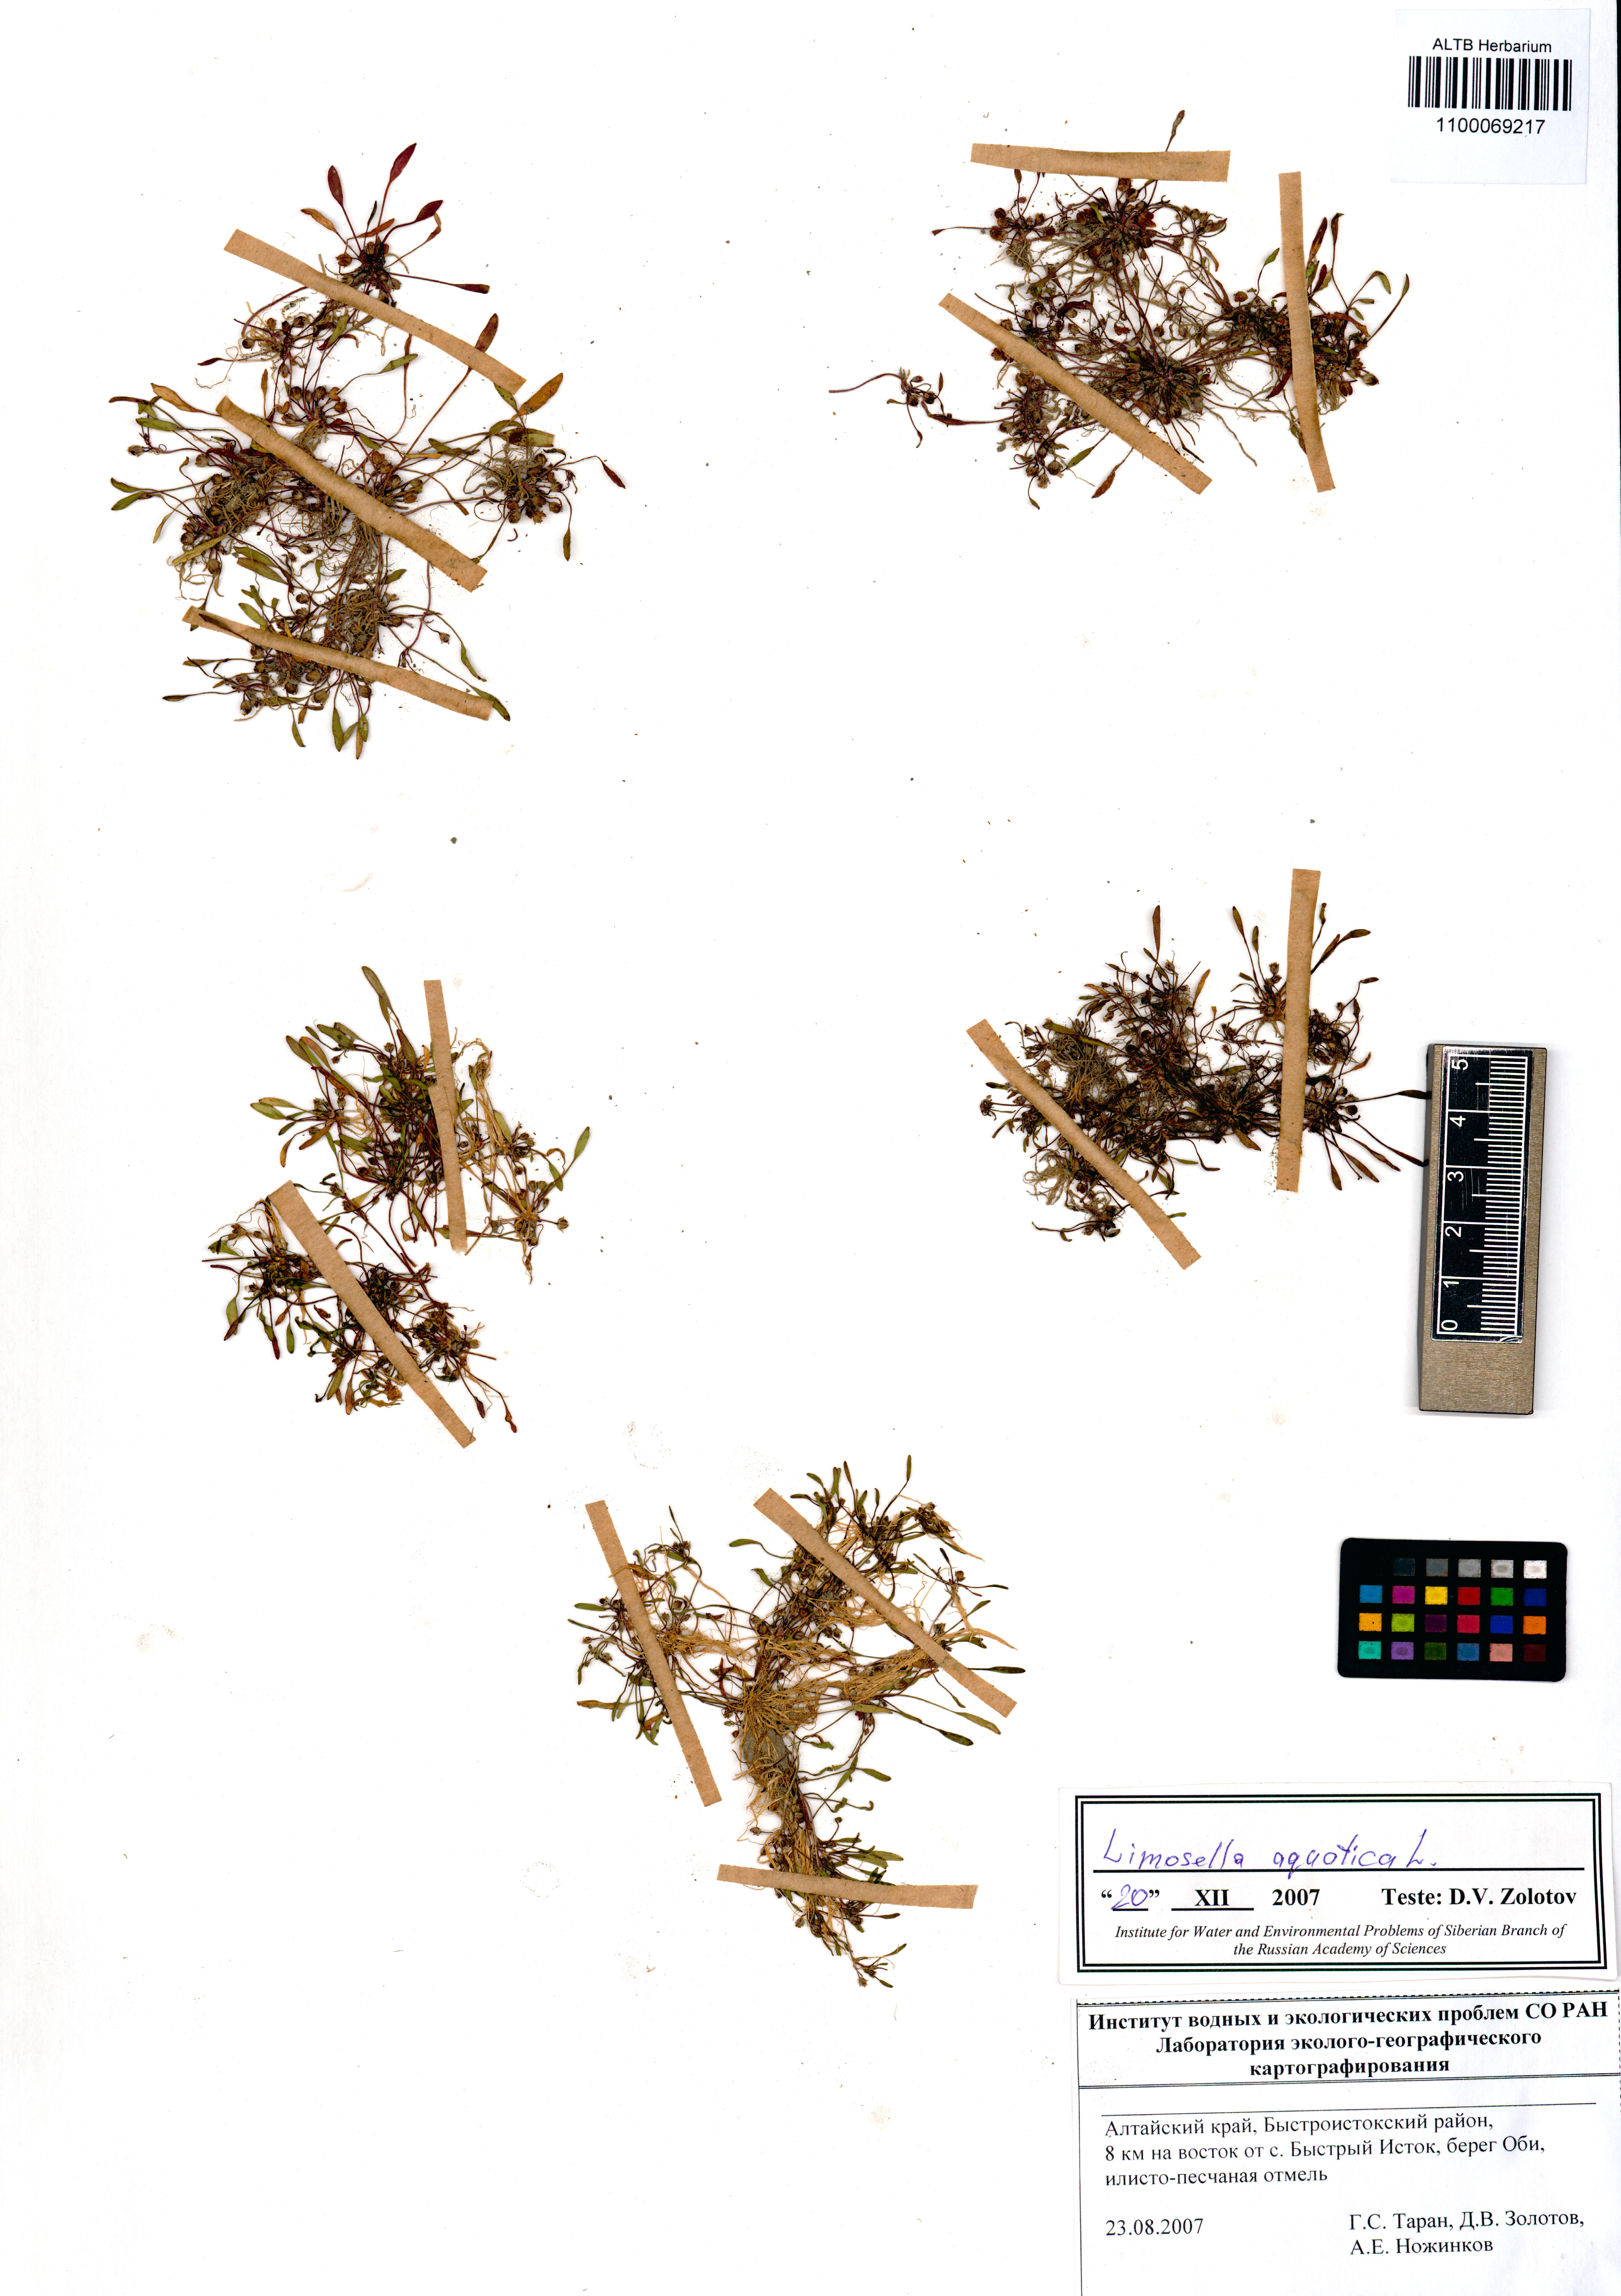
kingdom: Plantae
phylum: Tracheophyta
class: Magnoliopsida
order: Lamiales
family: Scrophulariaceae
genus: Limosella
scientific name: Limosella aquatica
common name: Mudwort
